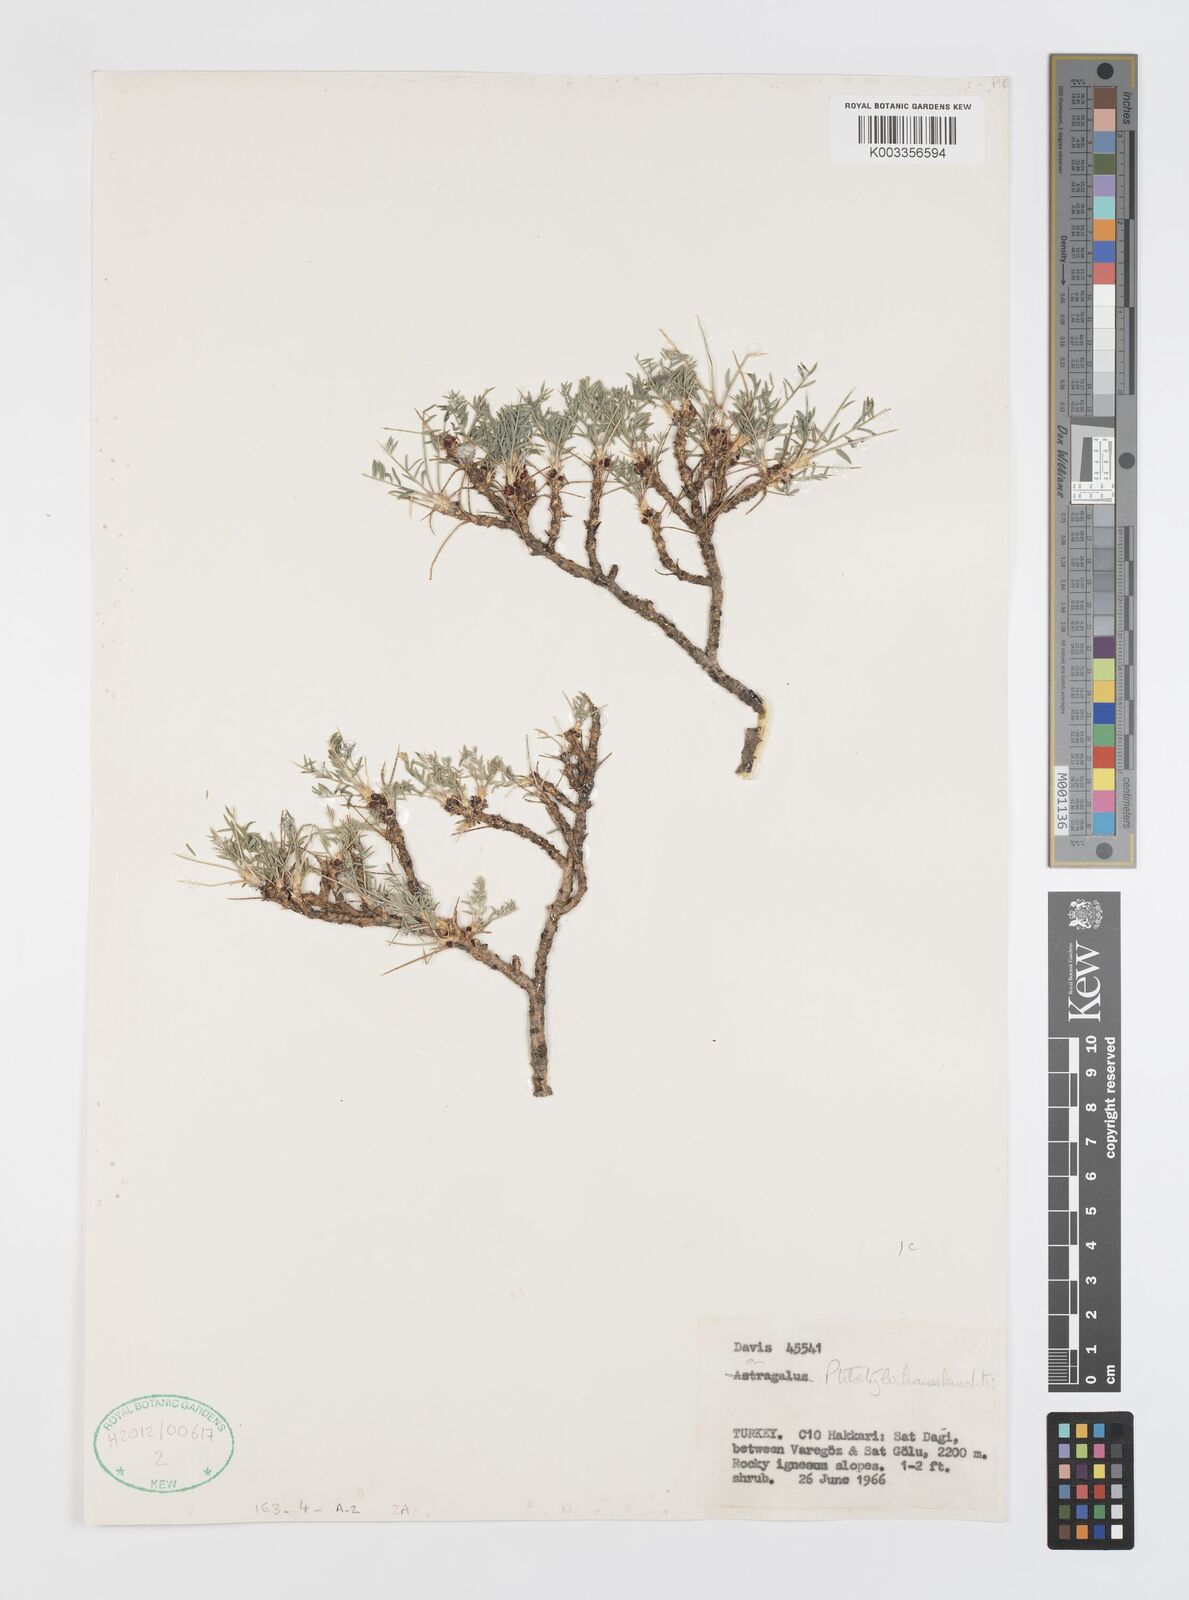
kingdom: Plantae
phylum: Tracheophyta
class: Magnoliopsida
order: Cucurbitales
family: Apodanthaceae
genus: Pilostyles
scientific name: Pilostyles haussknechtii
